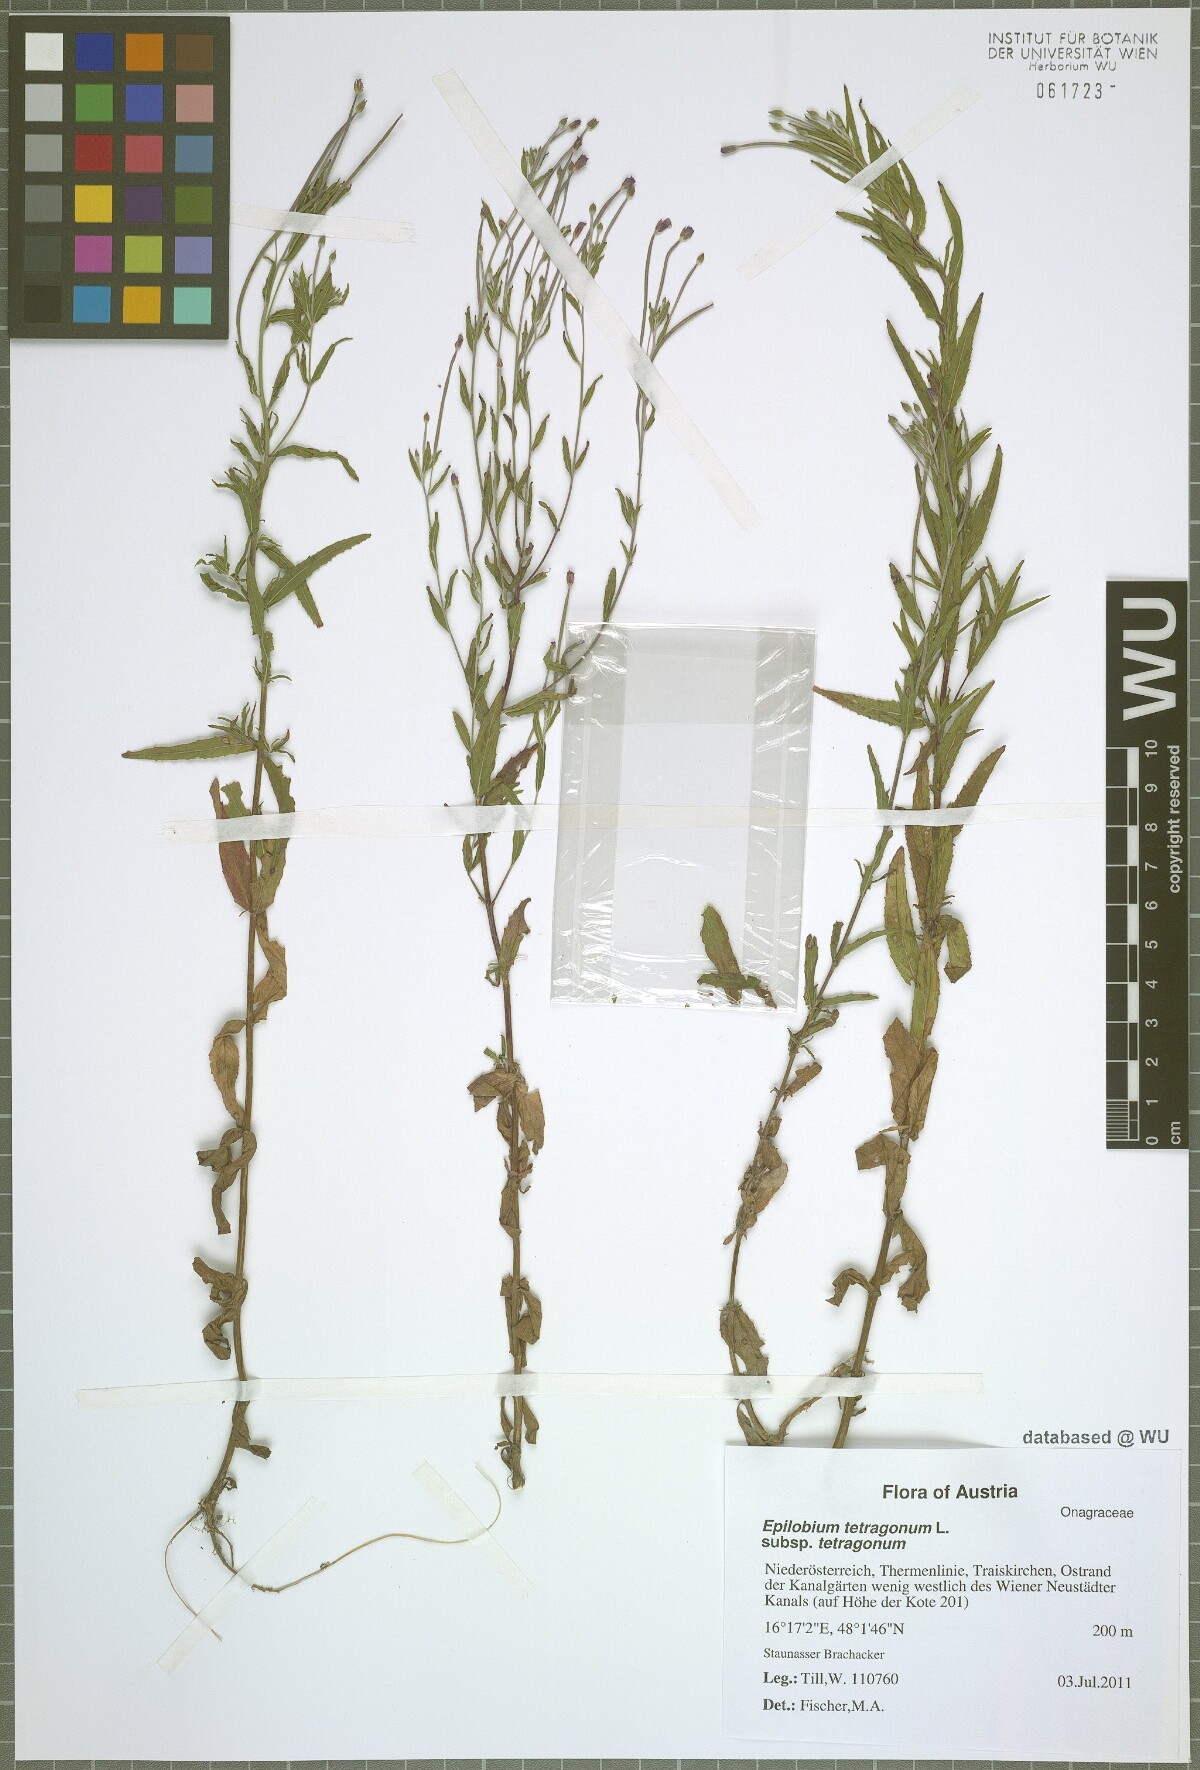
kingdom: Plantae
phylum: Tracheophyta
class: Magnoliopsida
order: Myrtales
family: Onagraceae
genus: Epilobium
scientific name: Epilobium tetragonum
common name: Square-stemmed willowherb
